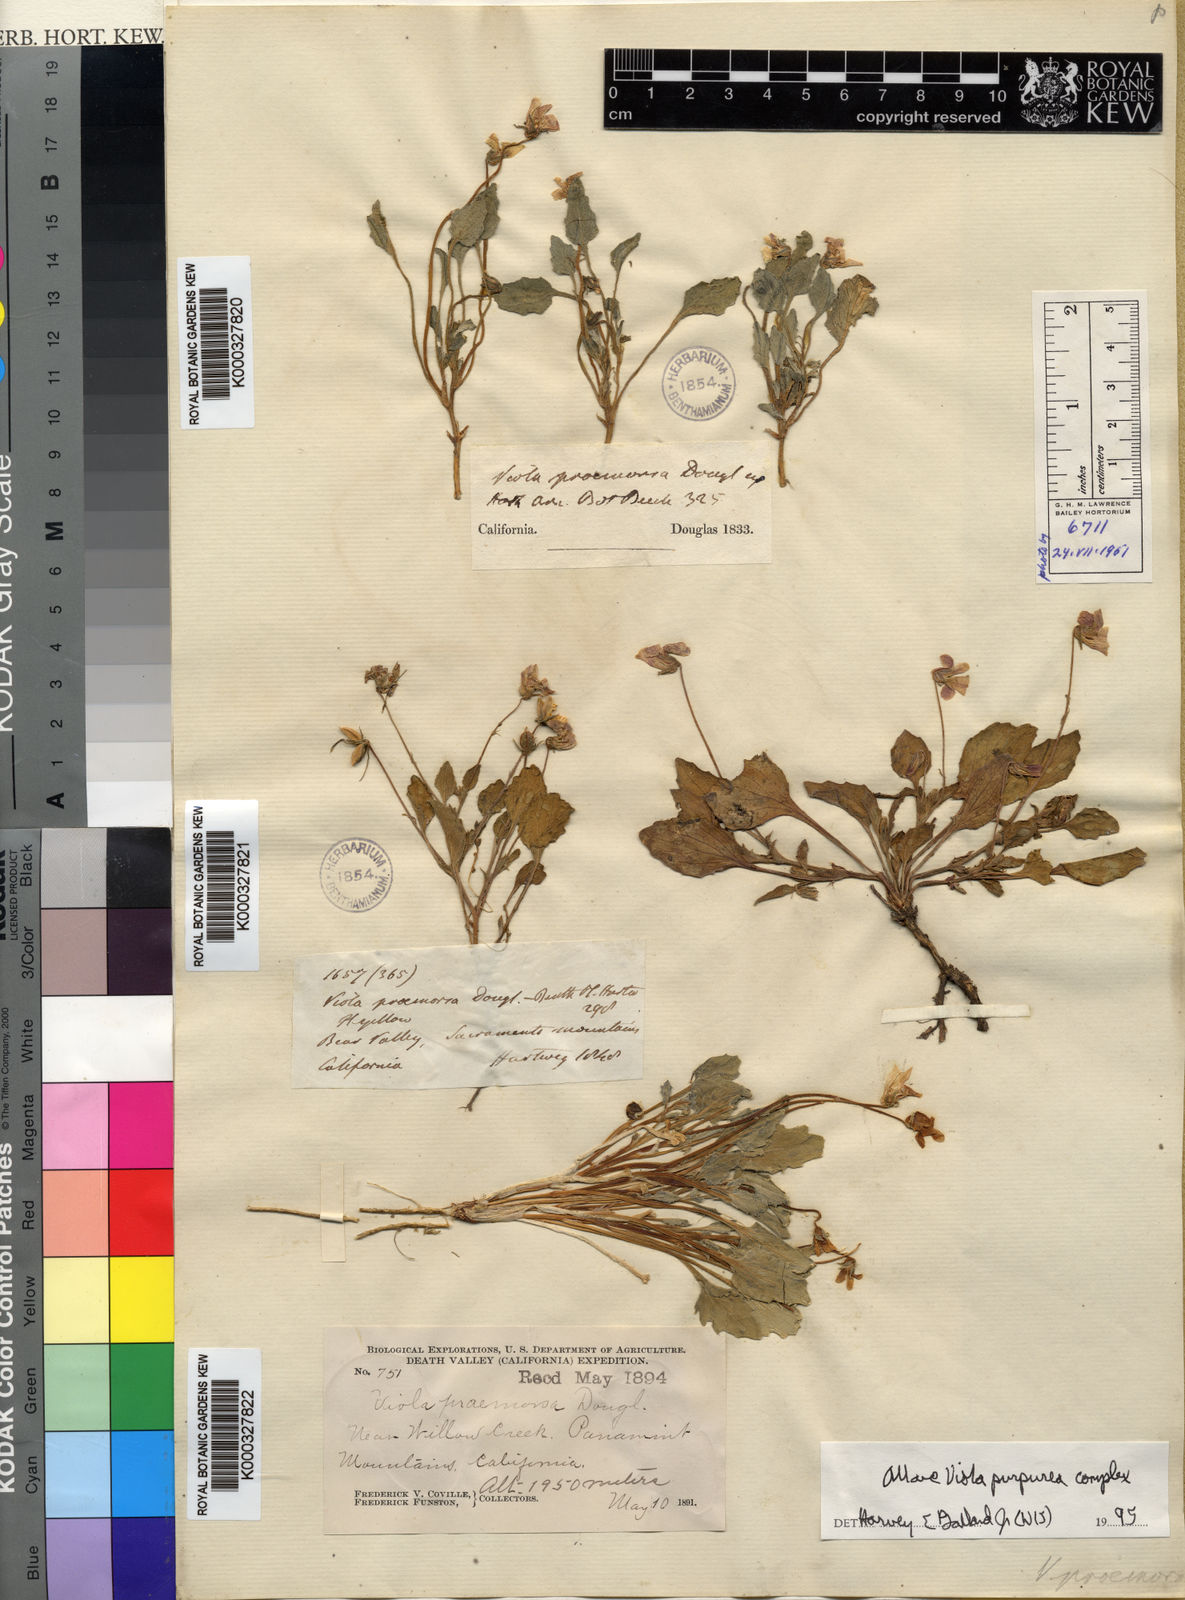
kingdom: Plantae
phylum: Tracheophyta
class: Magnoliopsida
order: Malpighiales
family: Violaceae
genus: Viola
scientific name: Viola
